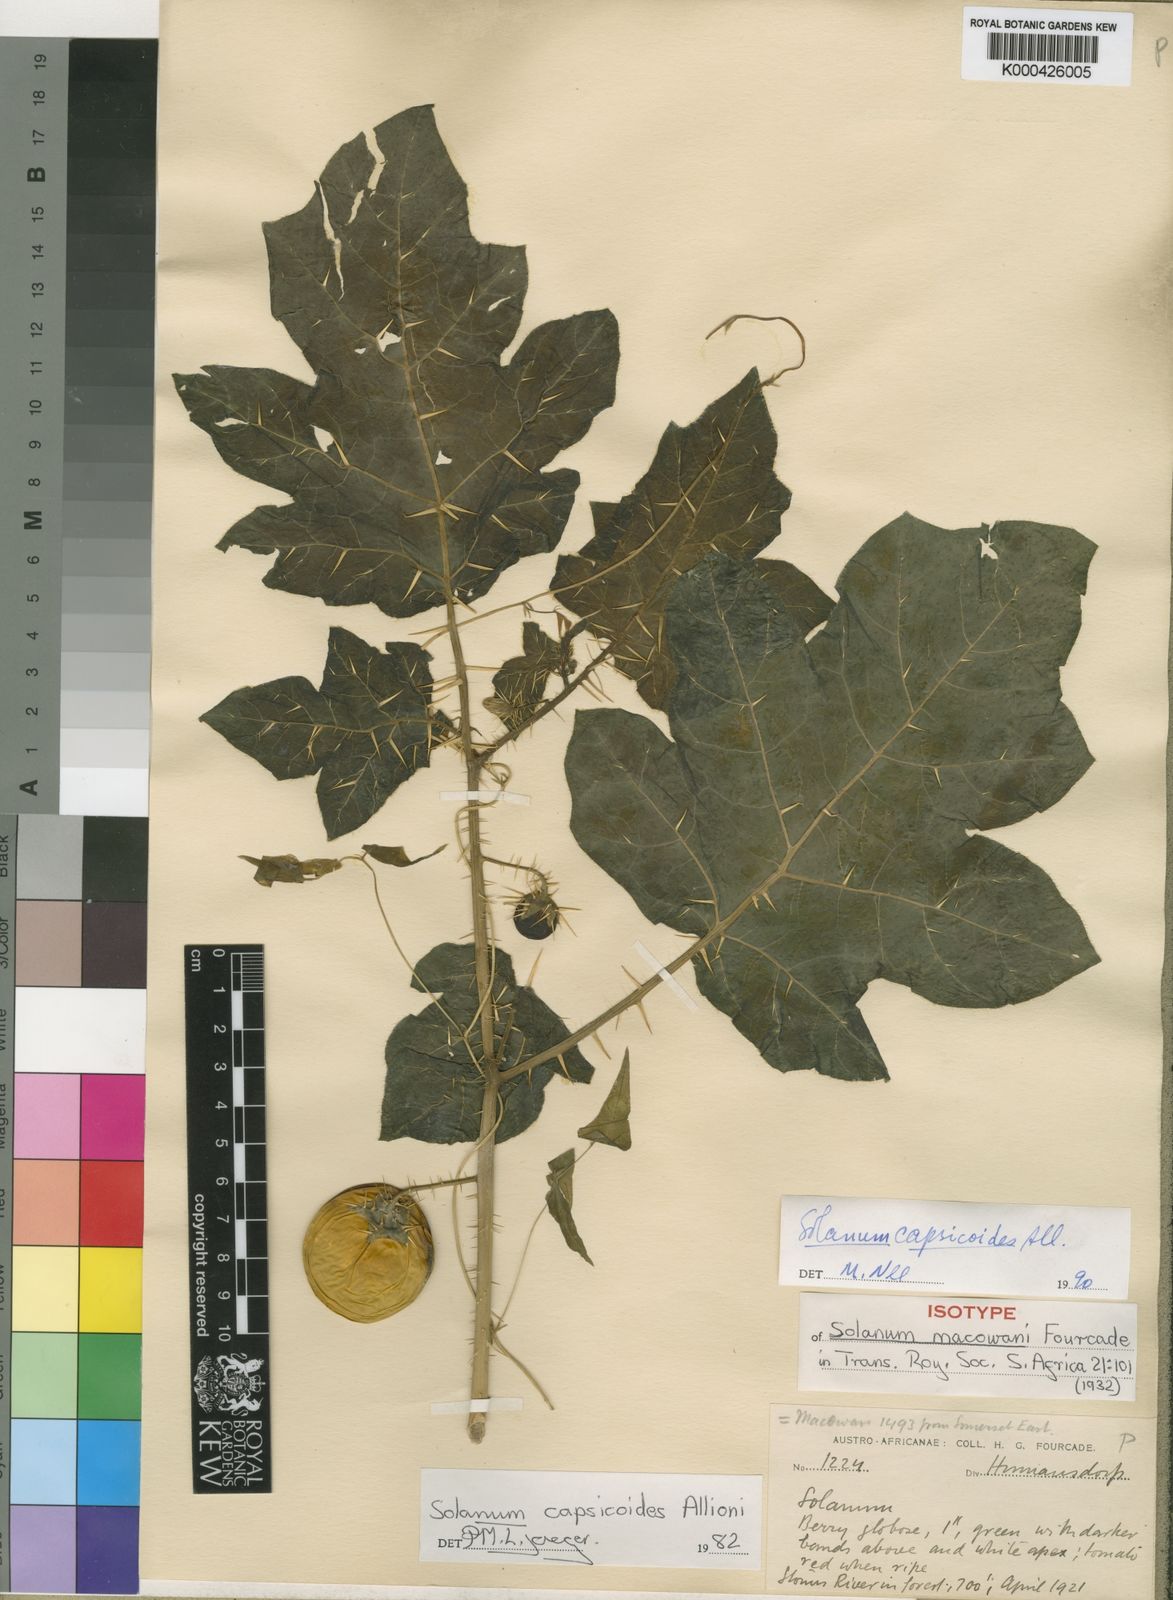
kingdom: Plantae
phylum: Tracheophyta
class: Magnoliopsida
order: Solanales
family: Solanaceae
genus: Solanum
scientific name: Solanum capsicoides
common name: Cockroach berry
